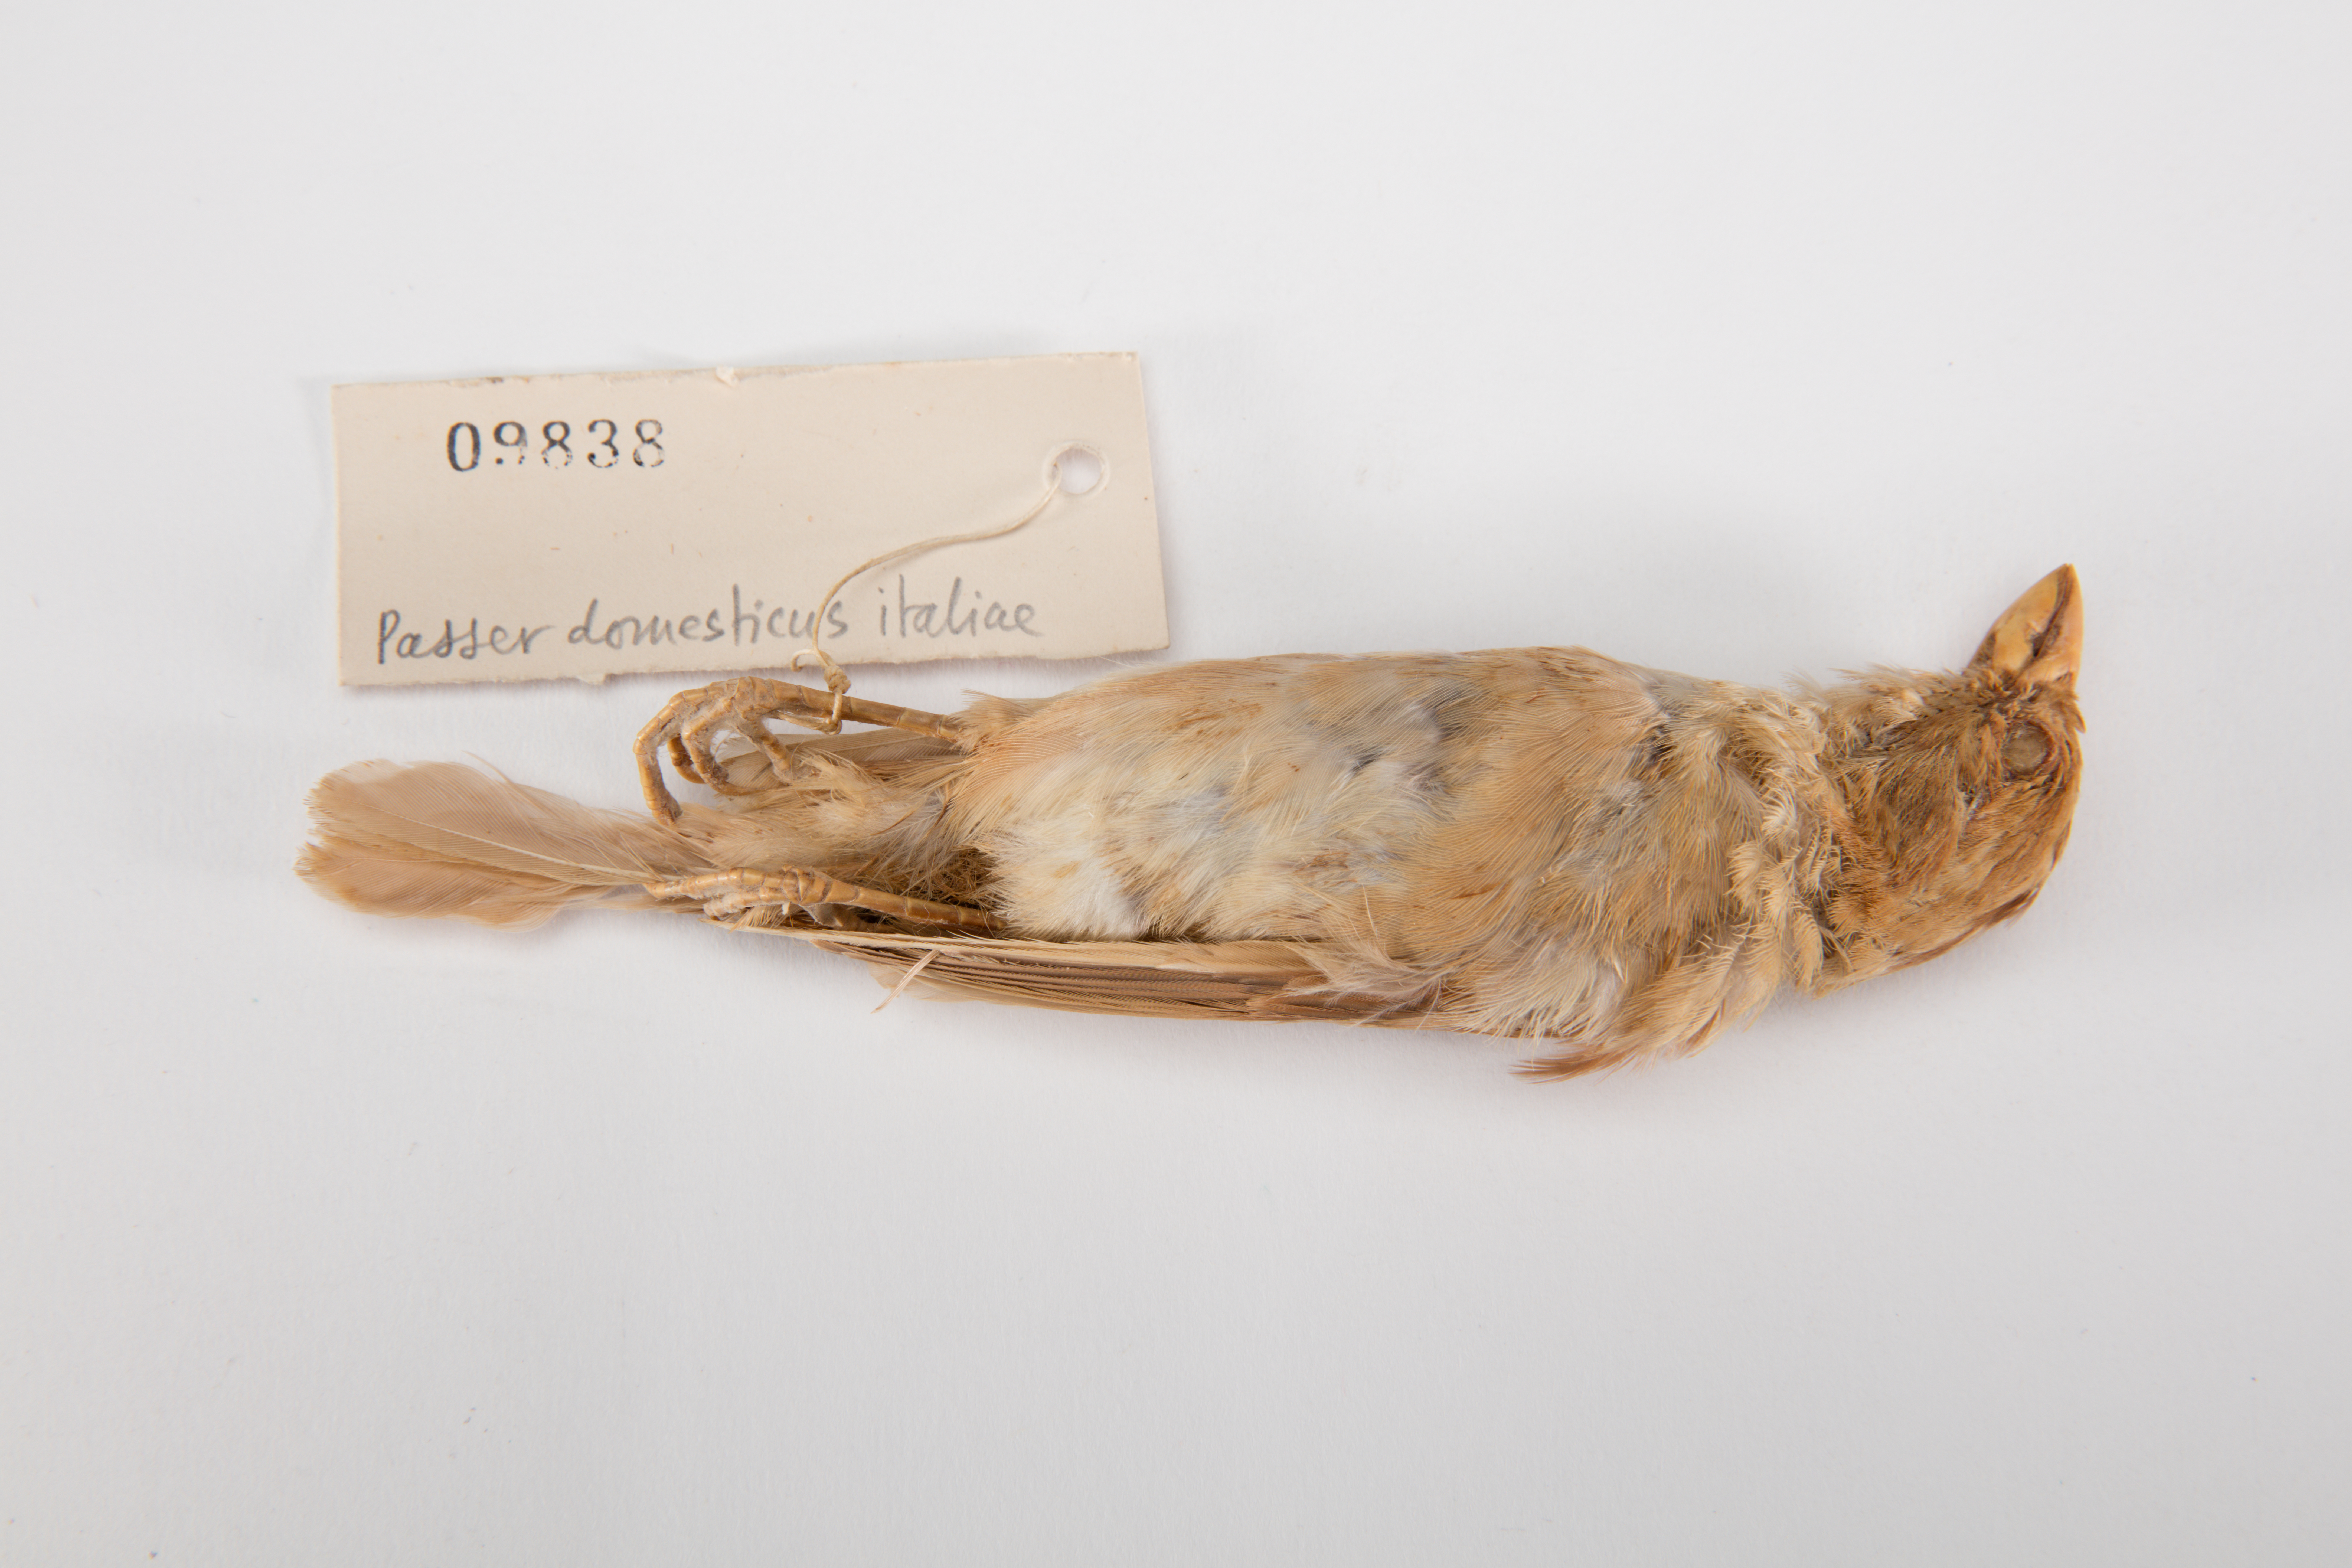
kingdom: Animalia
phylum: Chordata
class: Aves
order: Passeriformes
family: Passeridae
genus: Passer
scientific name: Passer italiae
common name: Italian sparrow
